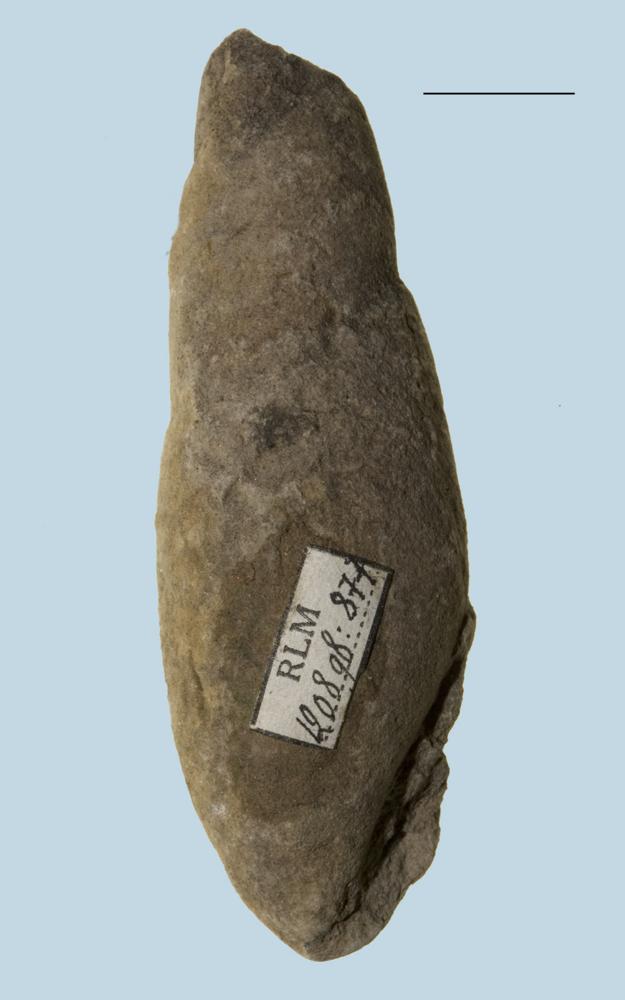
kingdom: Animalia
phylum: Mollusca
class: Gastropoda
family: Subulitidae
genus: Subulites
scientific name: Subulites subula
